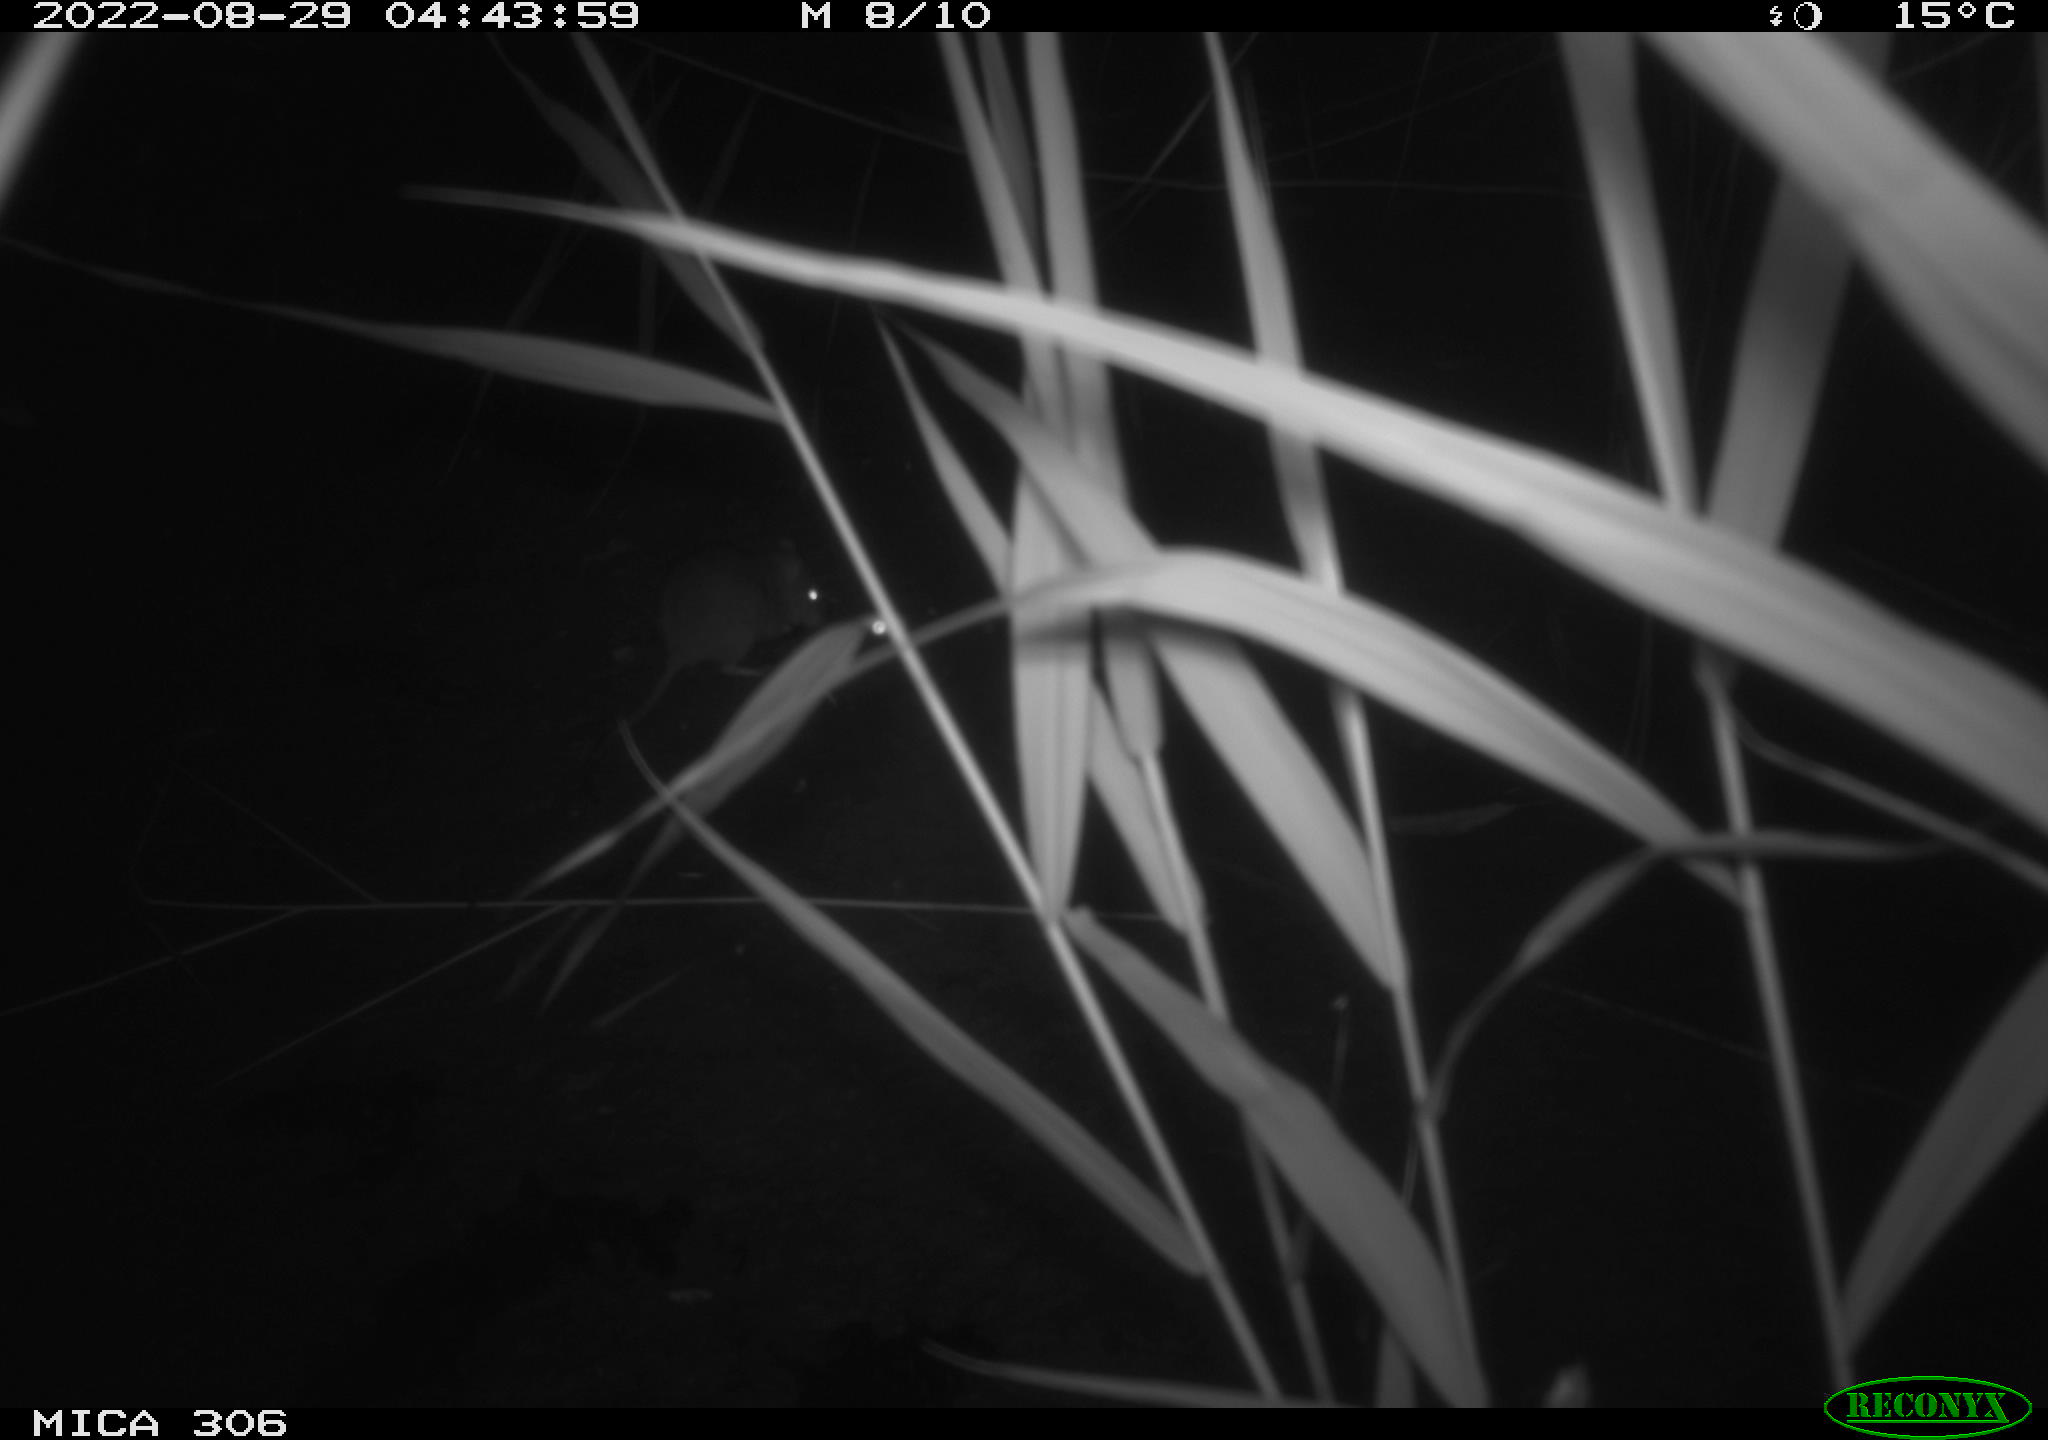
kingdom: Animalia
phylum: Chordata
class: Mammalia
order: Rodentia
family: Muridae
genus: Rattus
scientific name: Rattus norvegicus
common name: Brown rat
